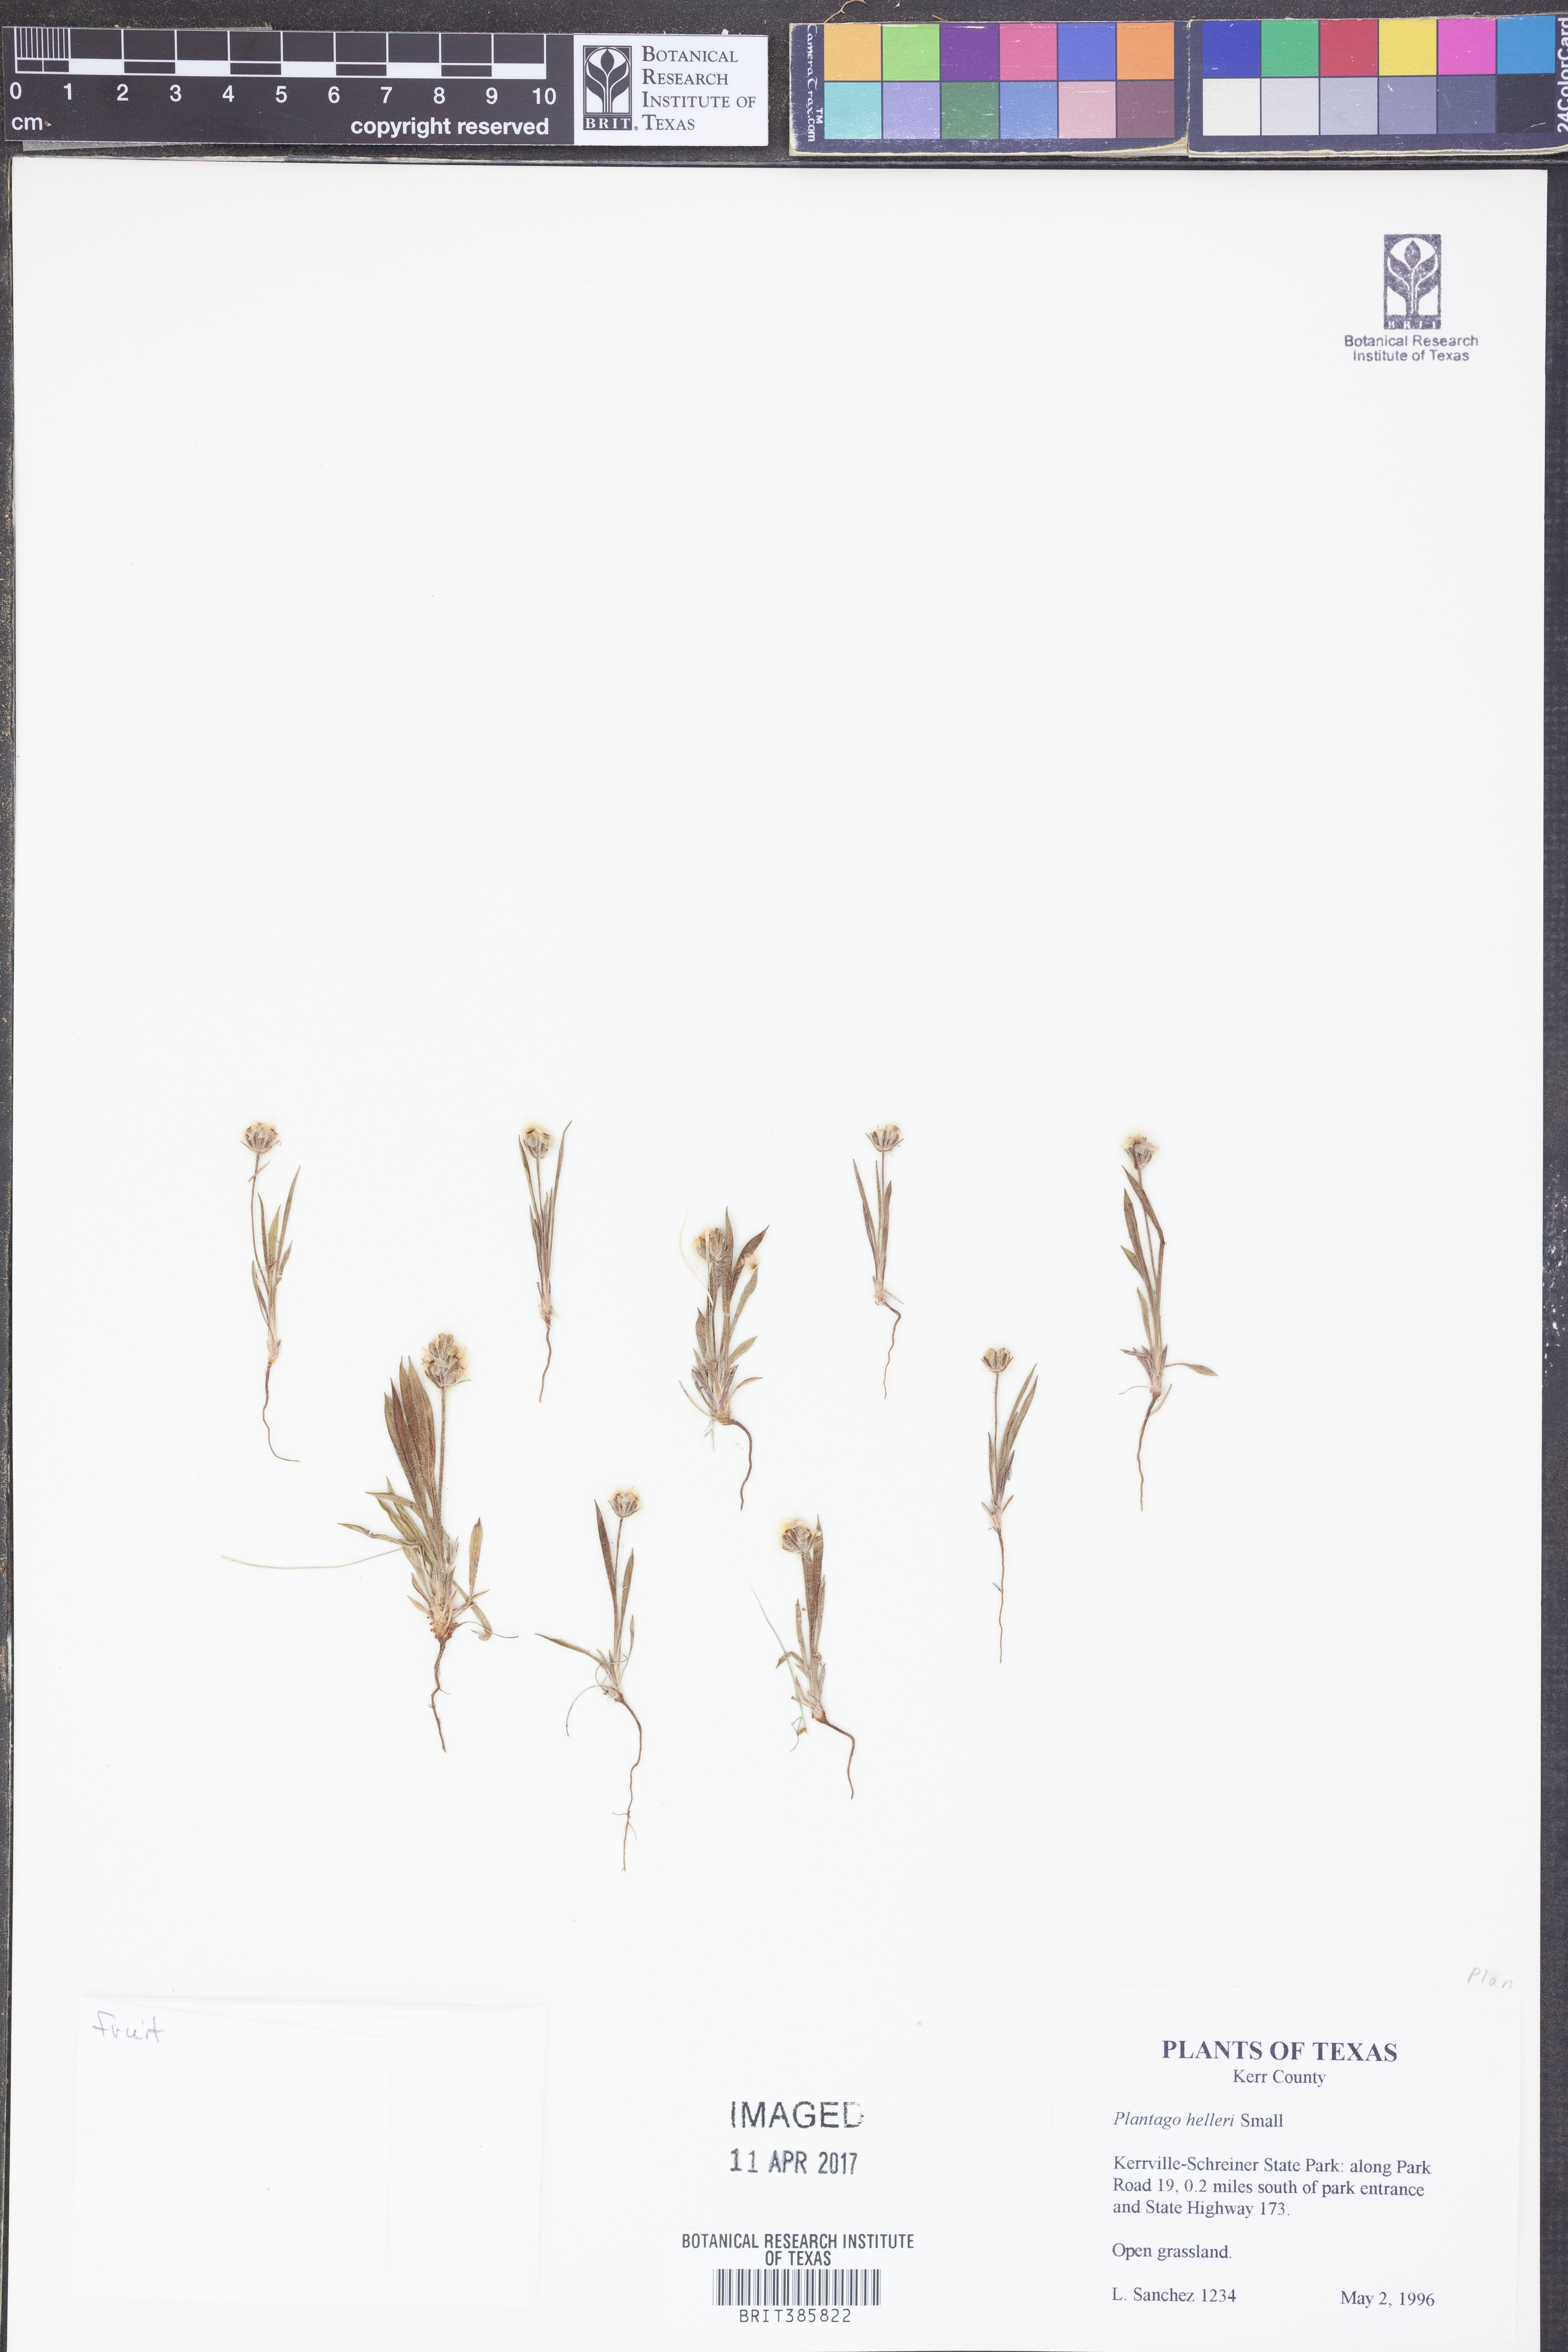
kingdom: Plantae
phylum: Tracheophyta
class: Magnoliopsida
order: Lamiales
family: Plantaginaceae
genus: Plantago
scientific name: Plantago helleri
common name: Heller's plantain
